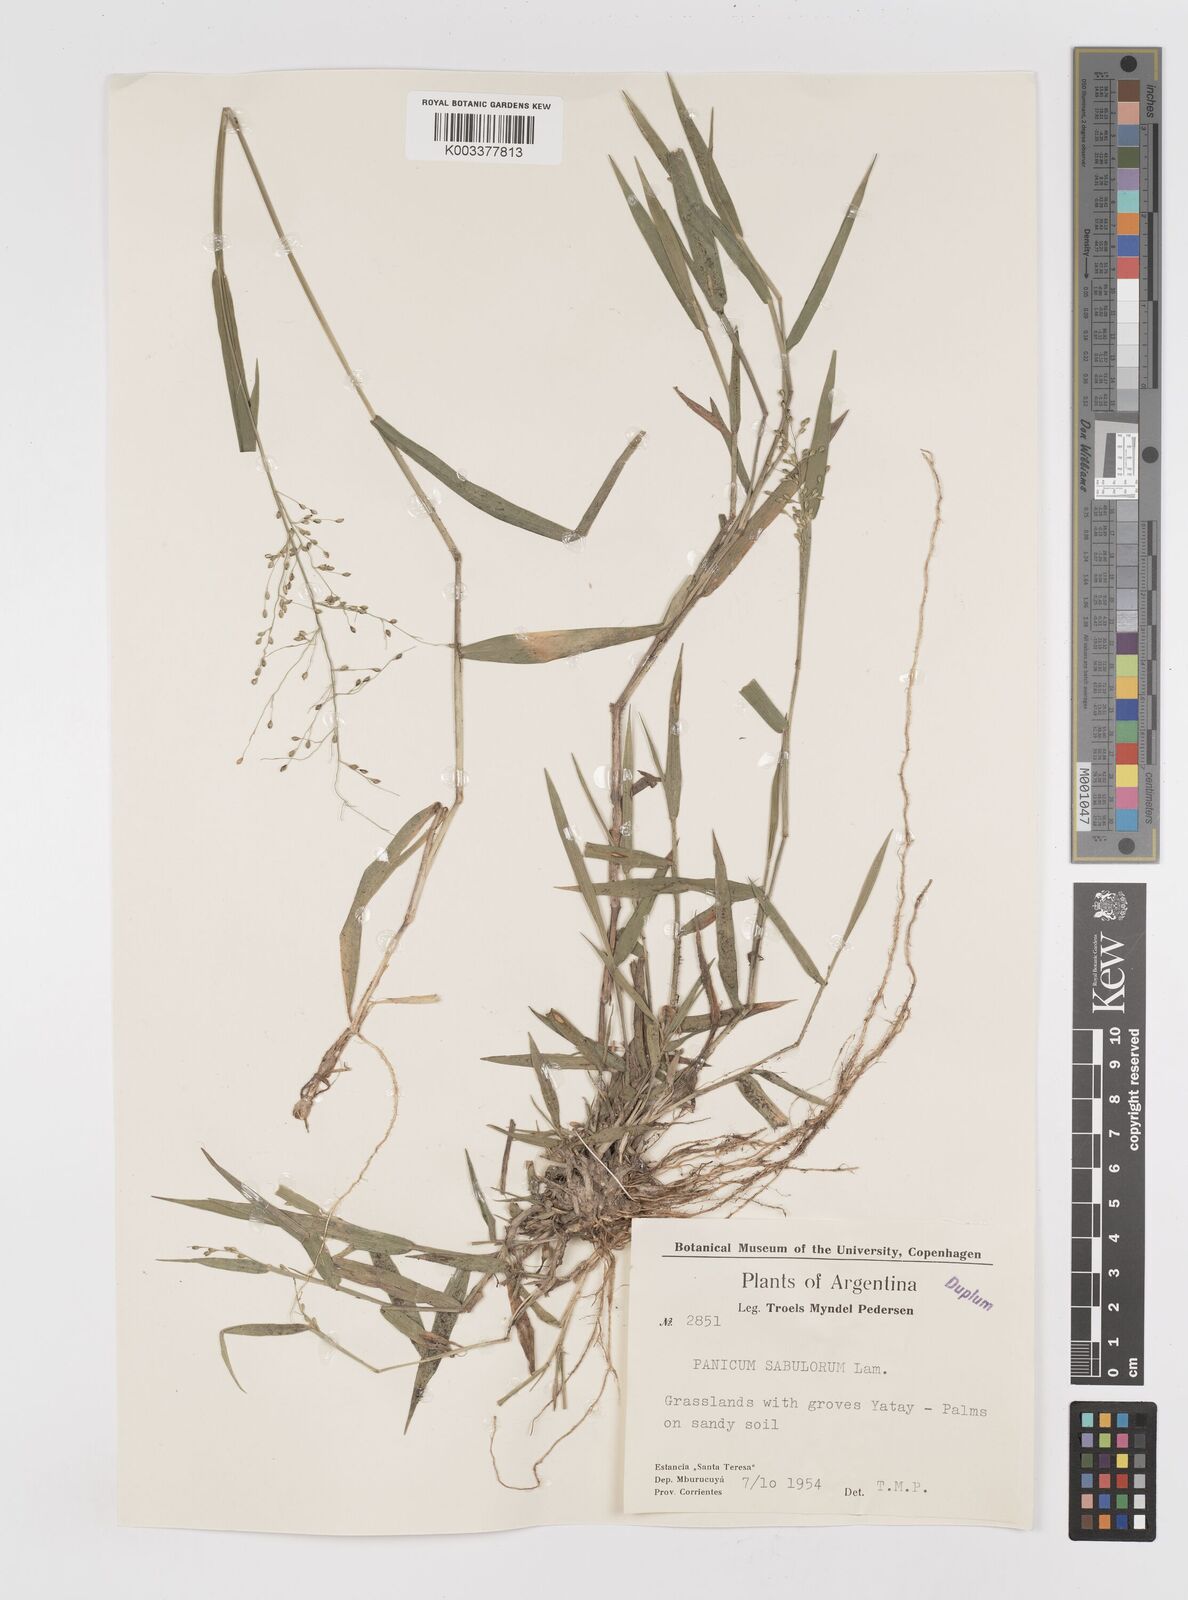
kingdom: Plantae
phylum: Tracheophyta
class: Liliopsida
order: Poales
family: Poaceae
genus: Dichanthelium
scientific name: Dichanthelium sabulorum
